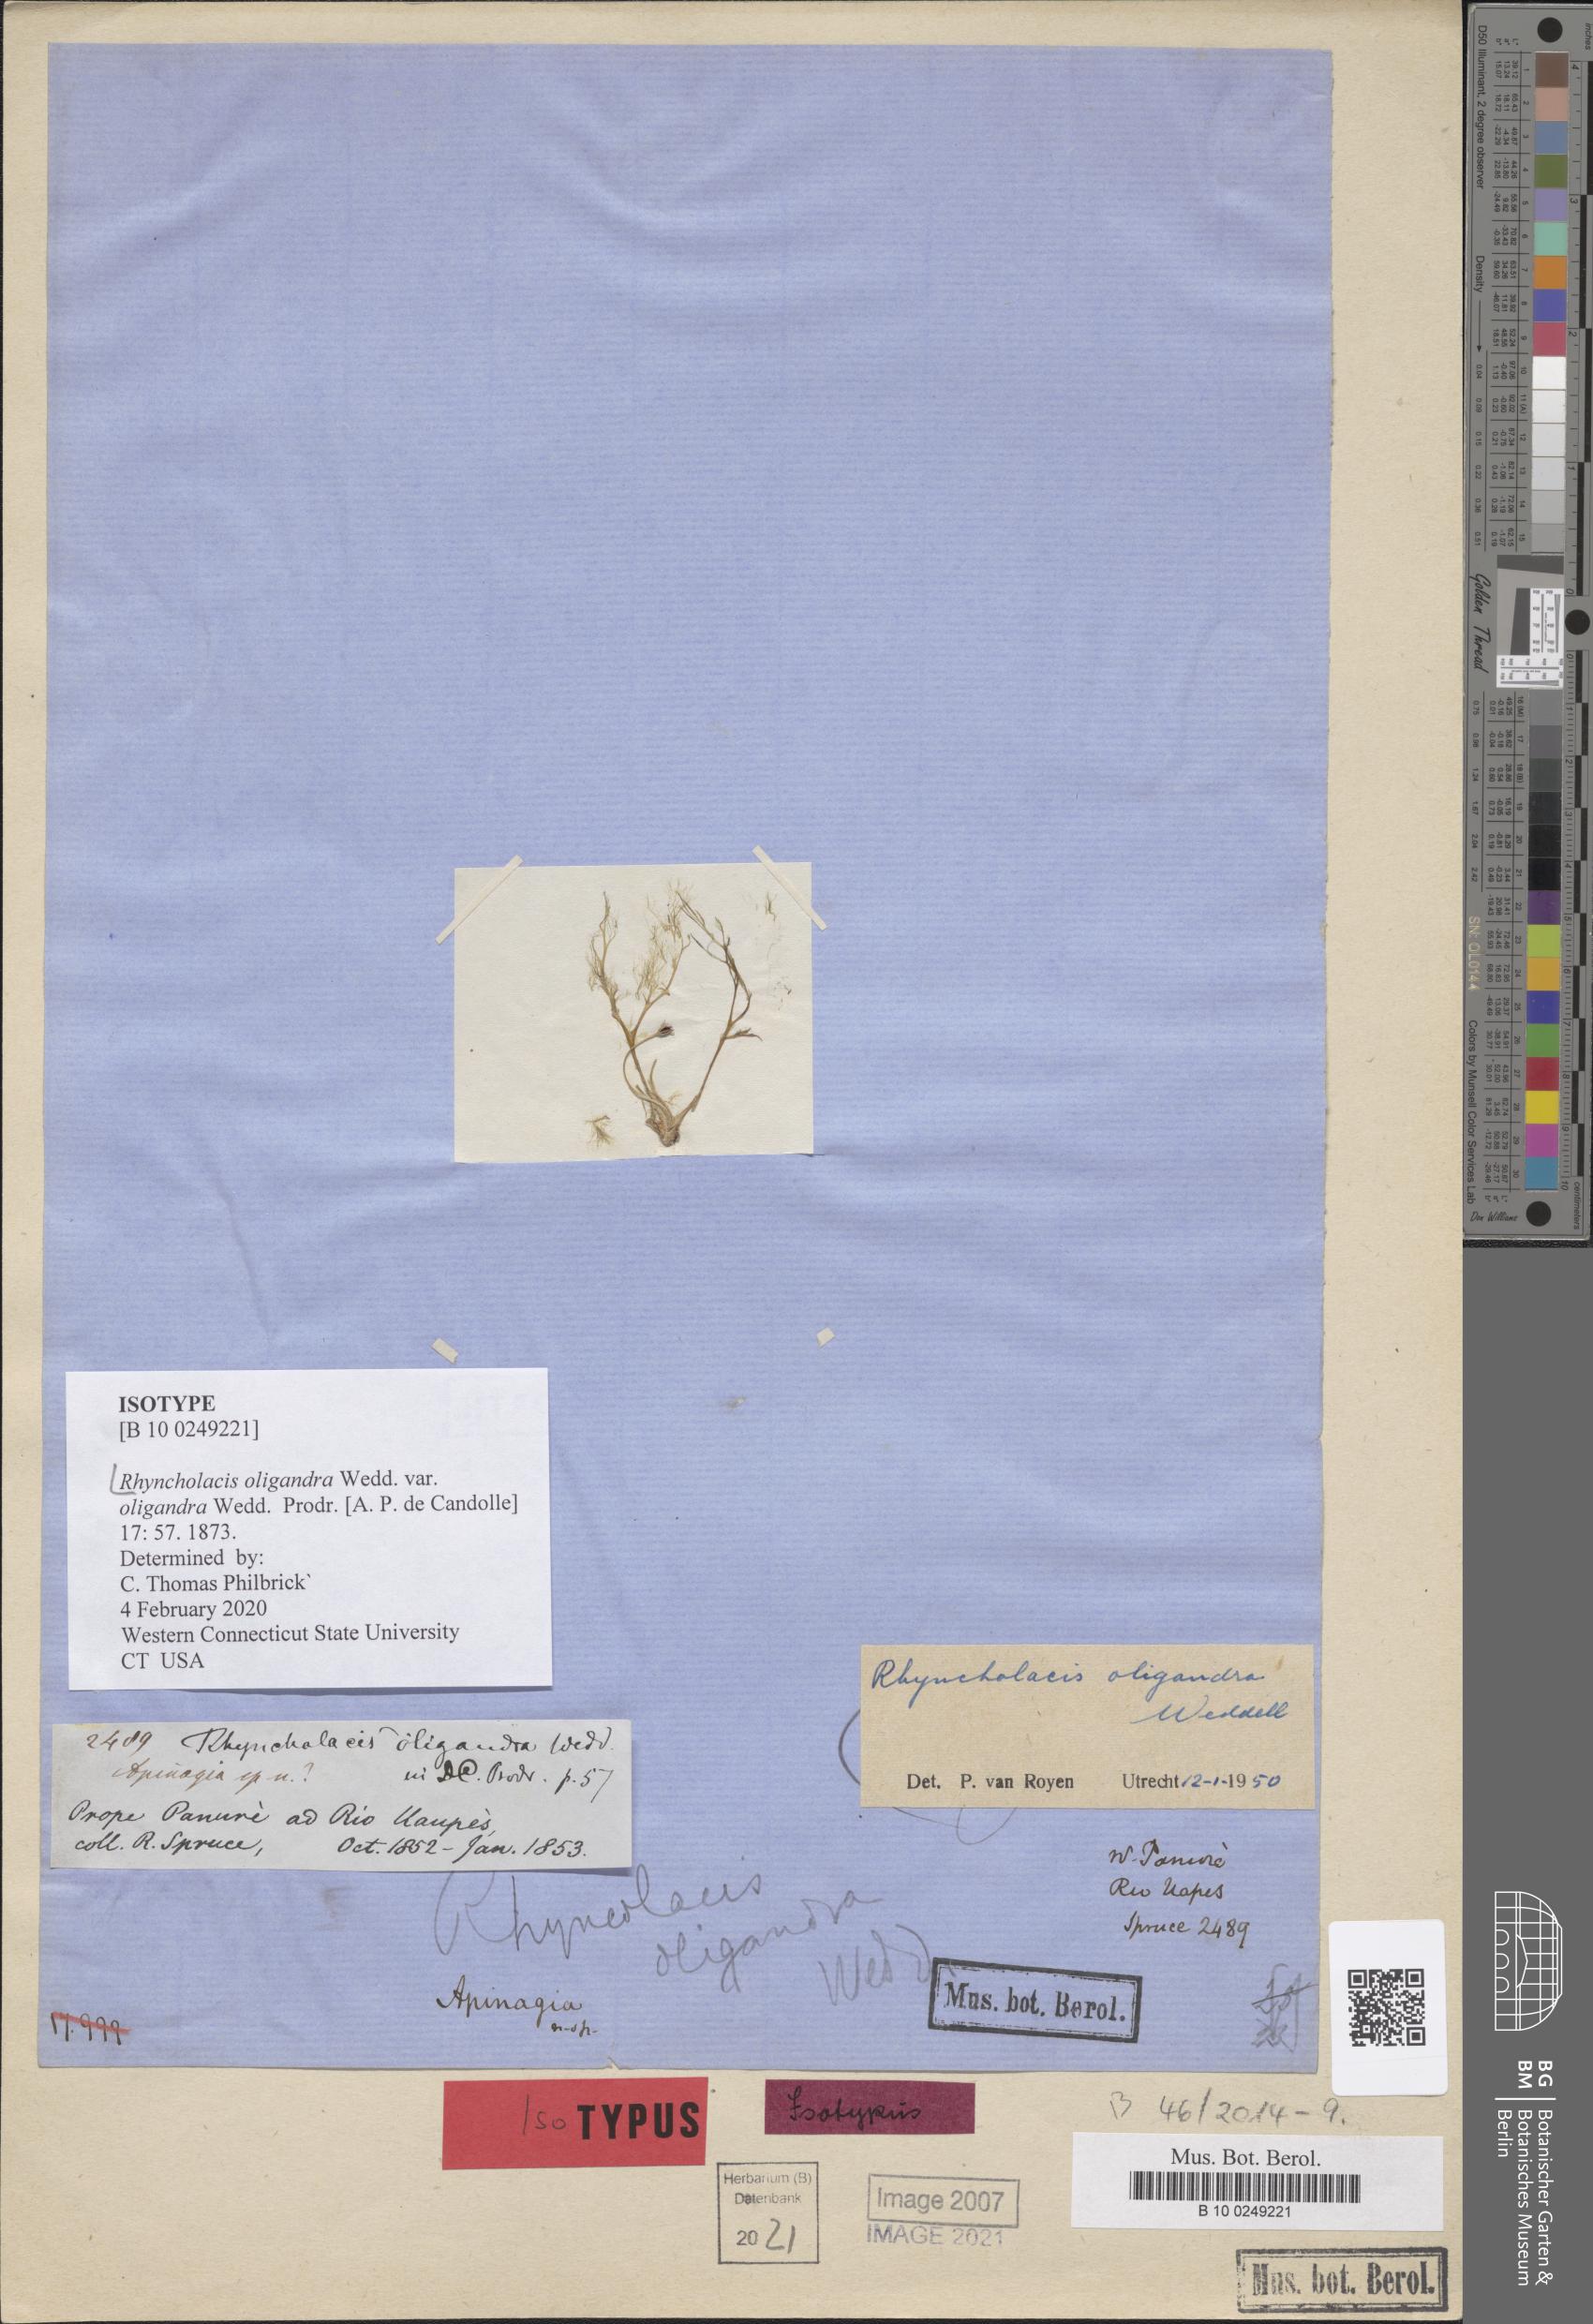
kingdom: Plantae
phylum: Tracheophyta
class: Magnoliopsida
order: Malpighiales
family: Podostemaceae
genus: Rhyncholacis
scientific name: Rhyncholacis oligandra
